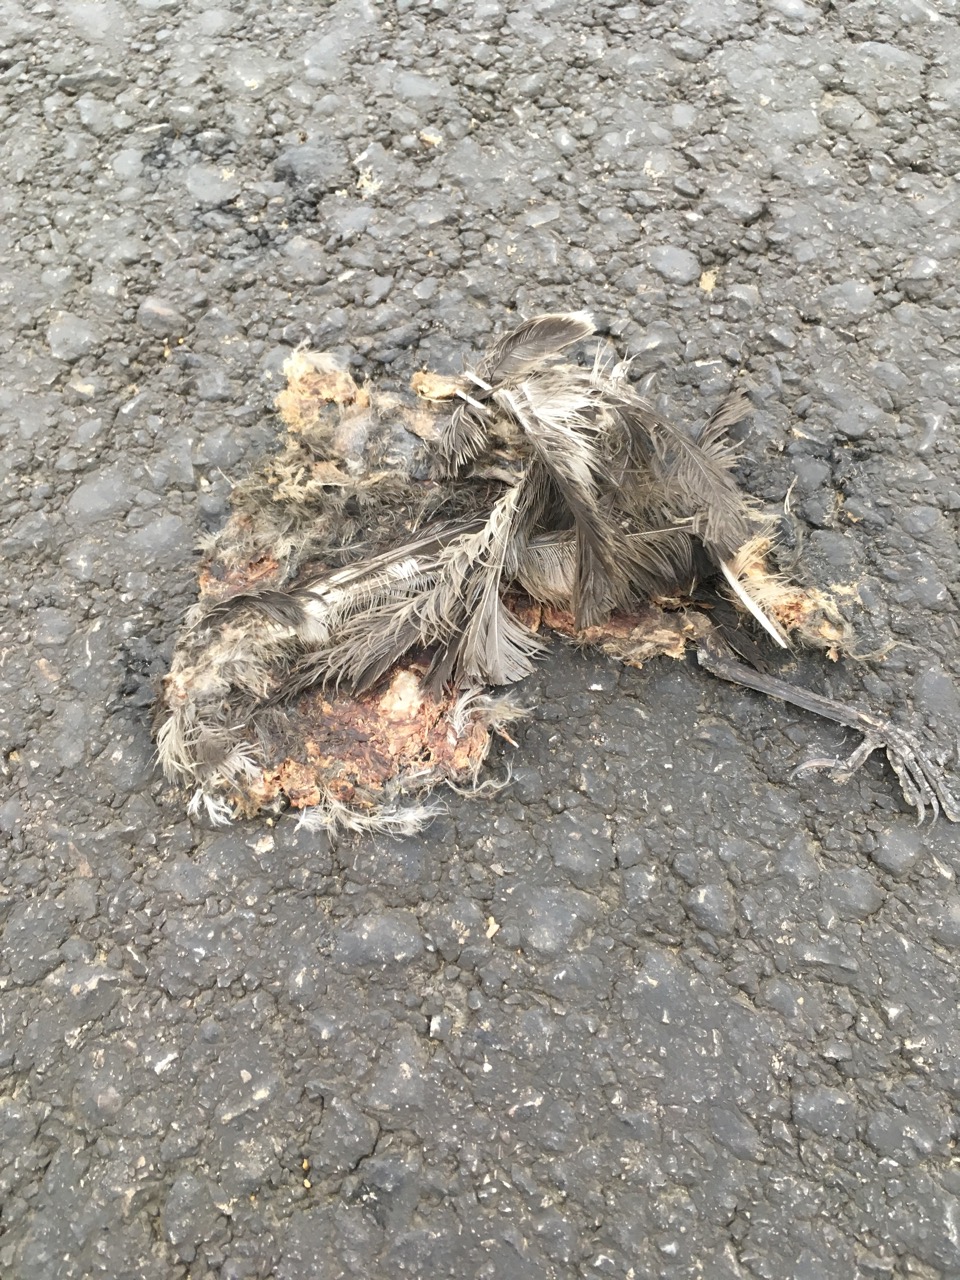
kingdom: Animalia
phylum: Chordata
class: Aves
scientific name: Aves
